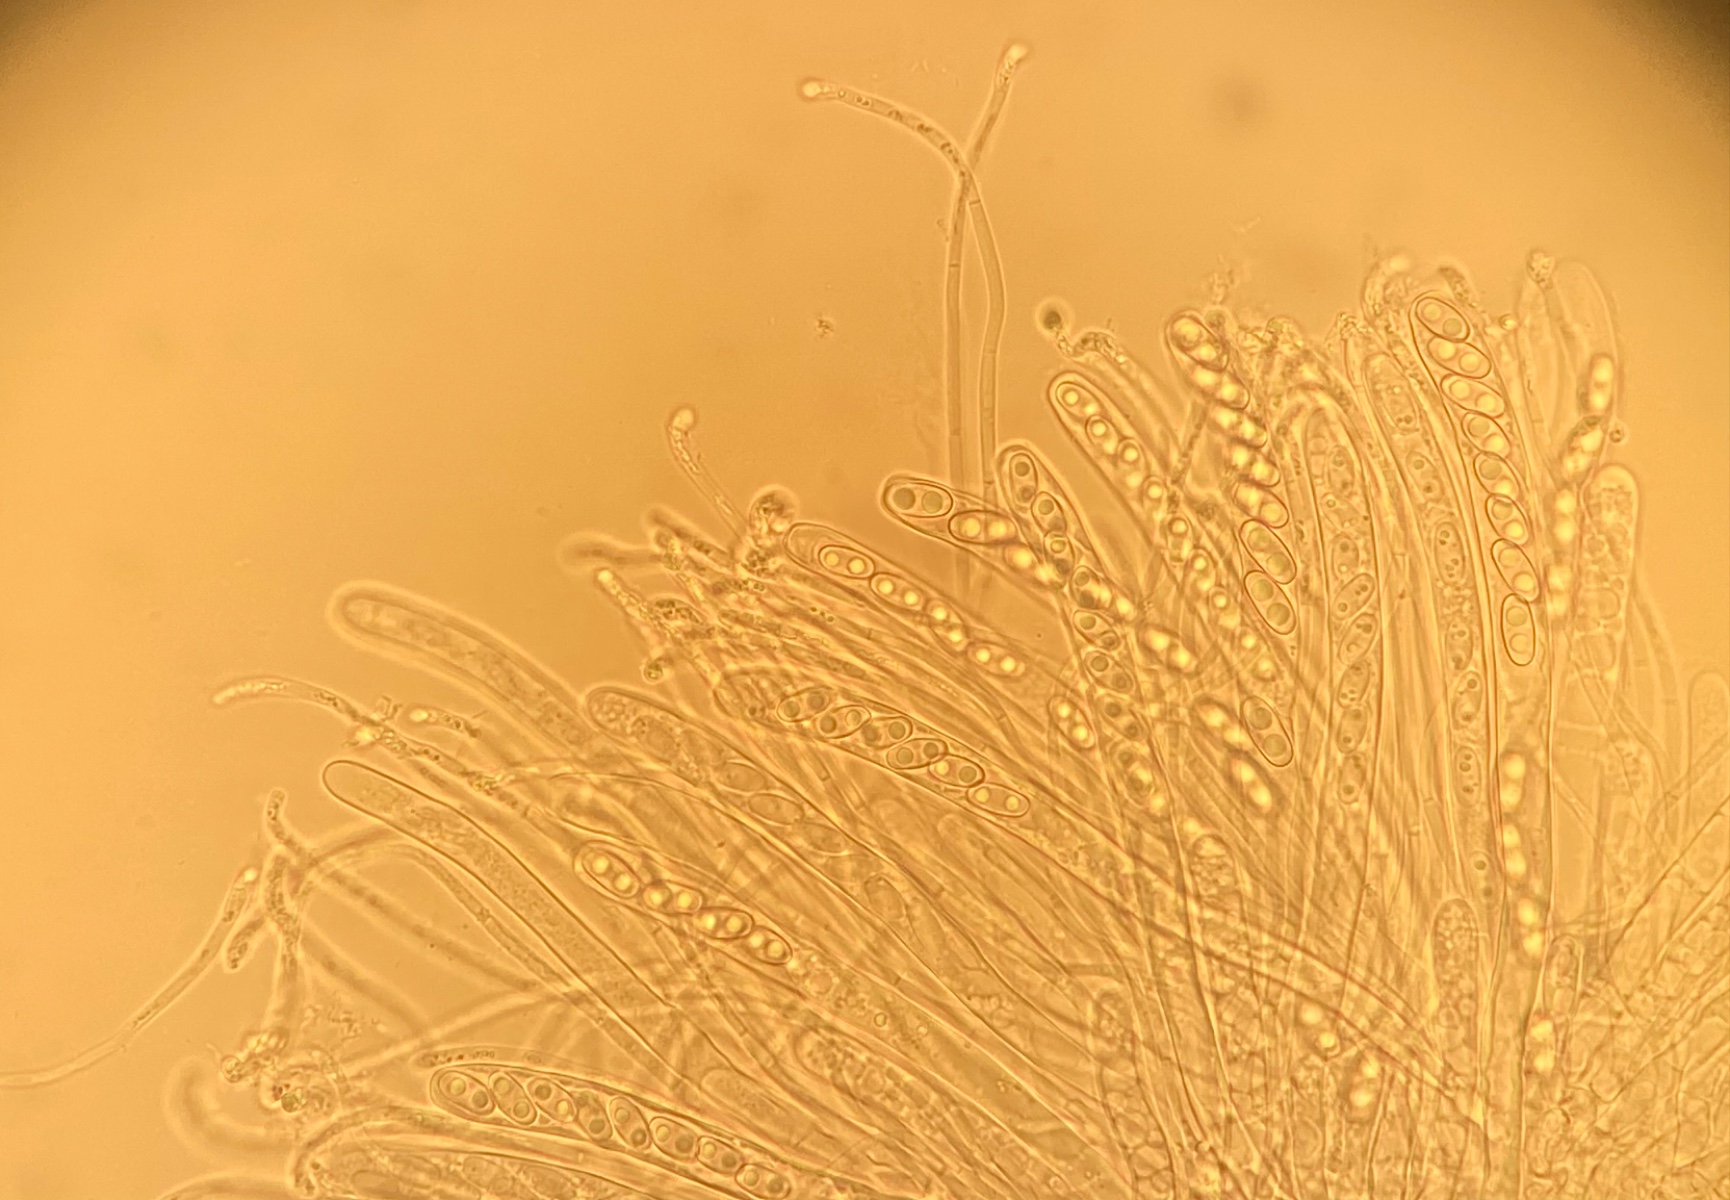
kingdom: Fungi
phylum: Ascomycota
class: Pezizomycetes
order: Pezizales
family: Otideaceae
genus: Otidea
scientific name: Otidea alutacea
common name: læder-ørebæger
